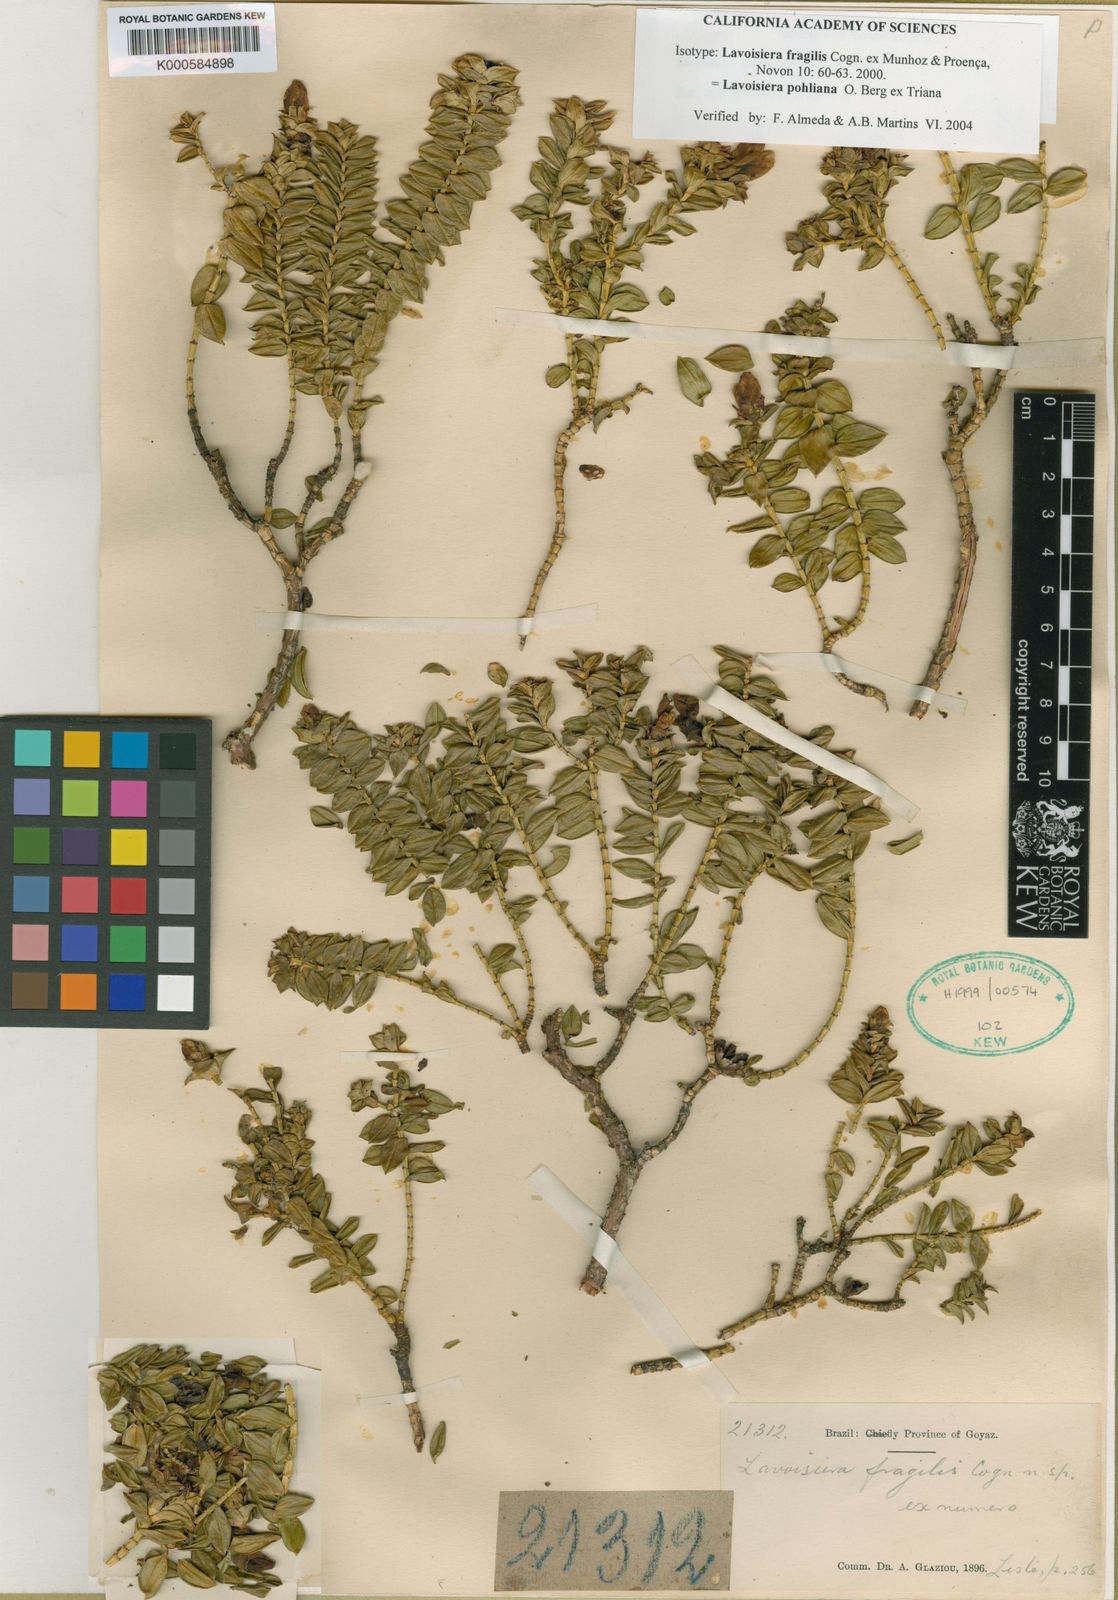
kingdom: Plantae
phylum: Tracheophyta
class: Magnoliopsida
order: Myrtales
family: Melastomataceae
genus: Microlicia
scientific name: Microlicia
